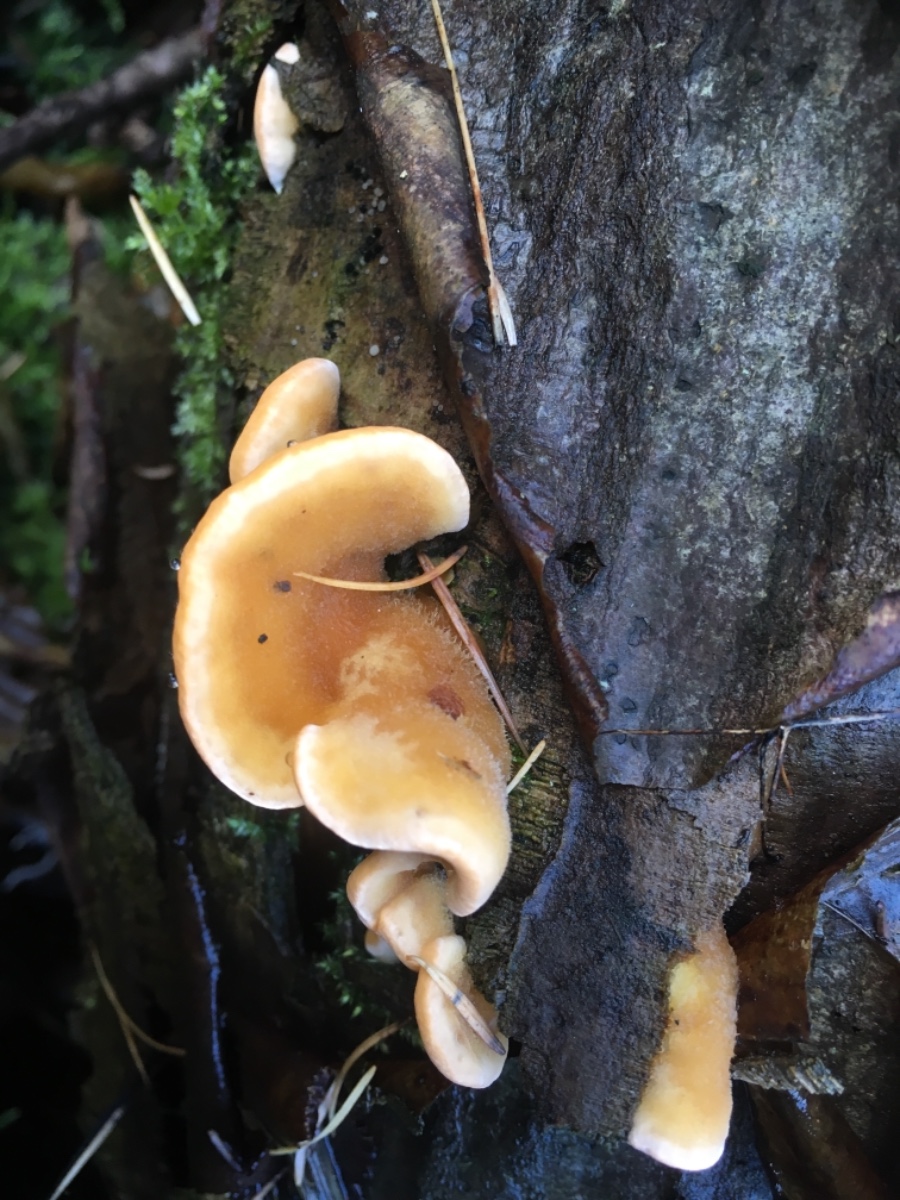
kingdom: Fungi
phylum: Basidiomycota
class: Agaricomycetes
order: Russulales
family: Stereaceae
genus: Stereum
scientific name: Stereum hirsutum
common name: håret lædersvamp
